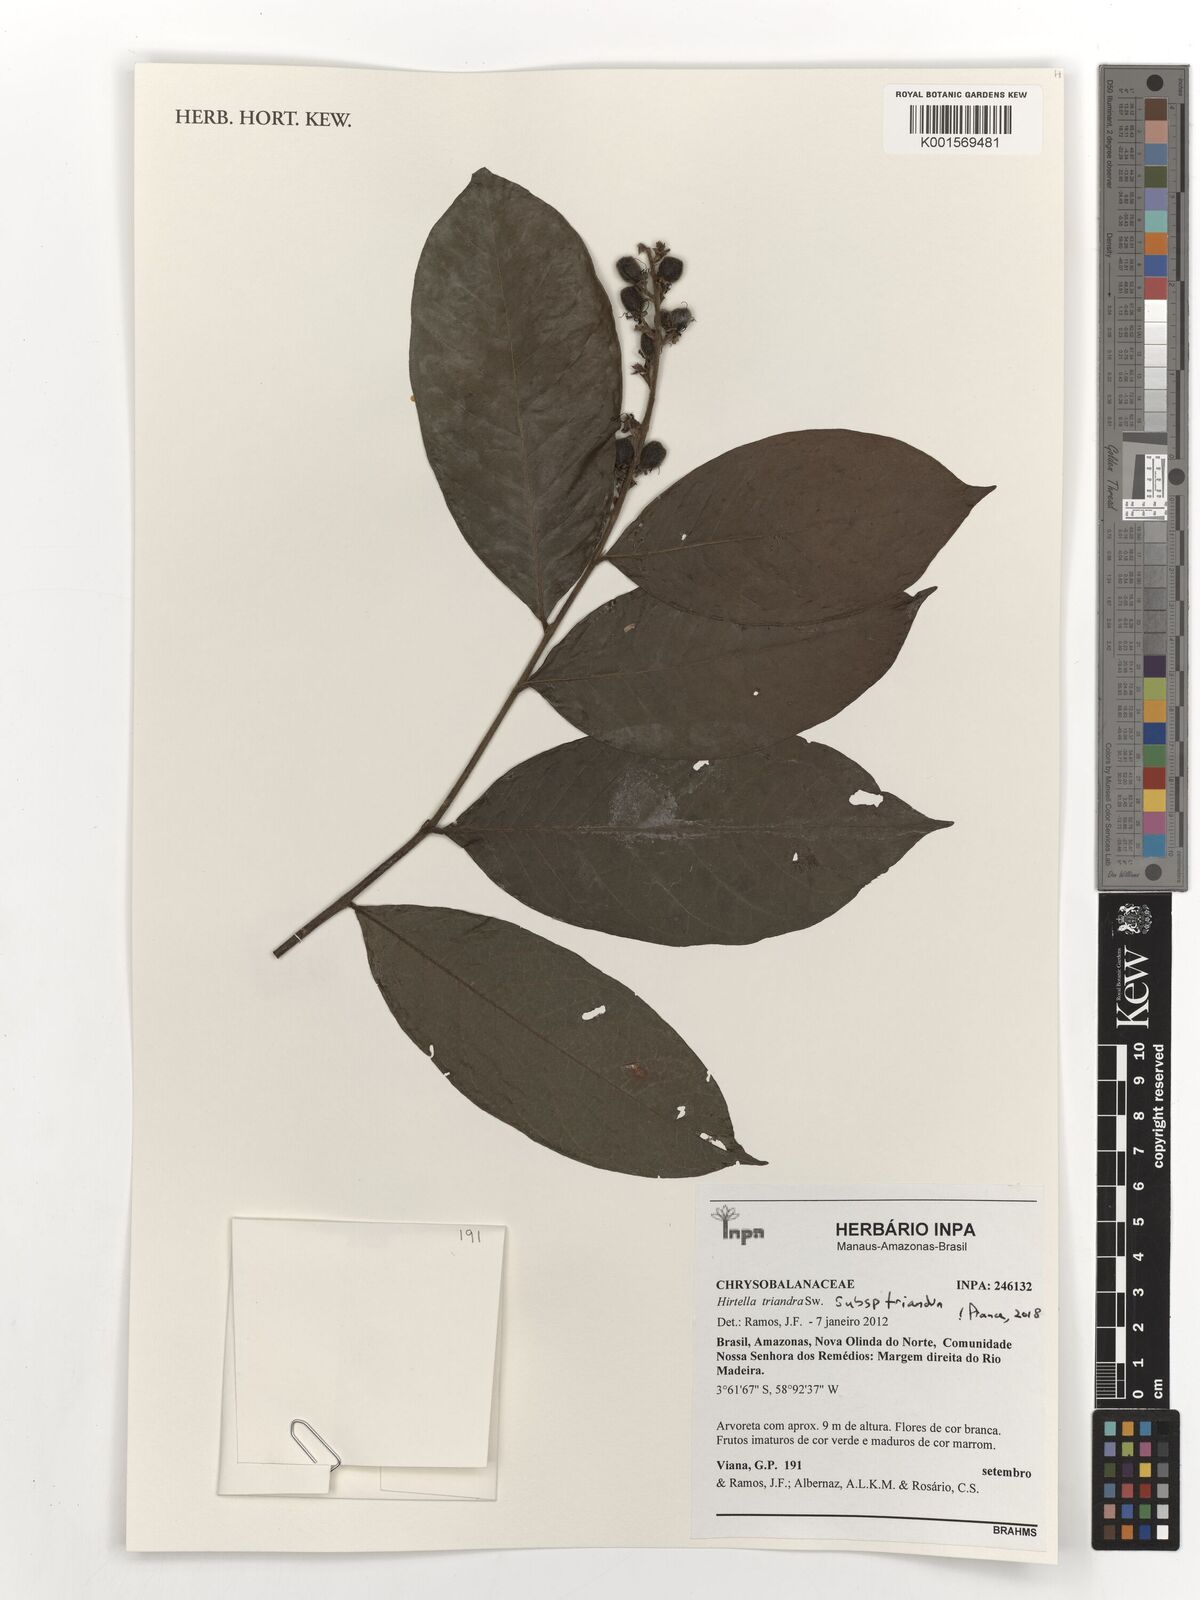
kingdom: Plantae
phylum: Tracheophyta
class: Magnoliopsida
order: Malpighiales
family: Chrysobalanaceae
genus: Hirtella
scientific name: Hirtella triandra
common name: Hairy plum
